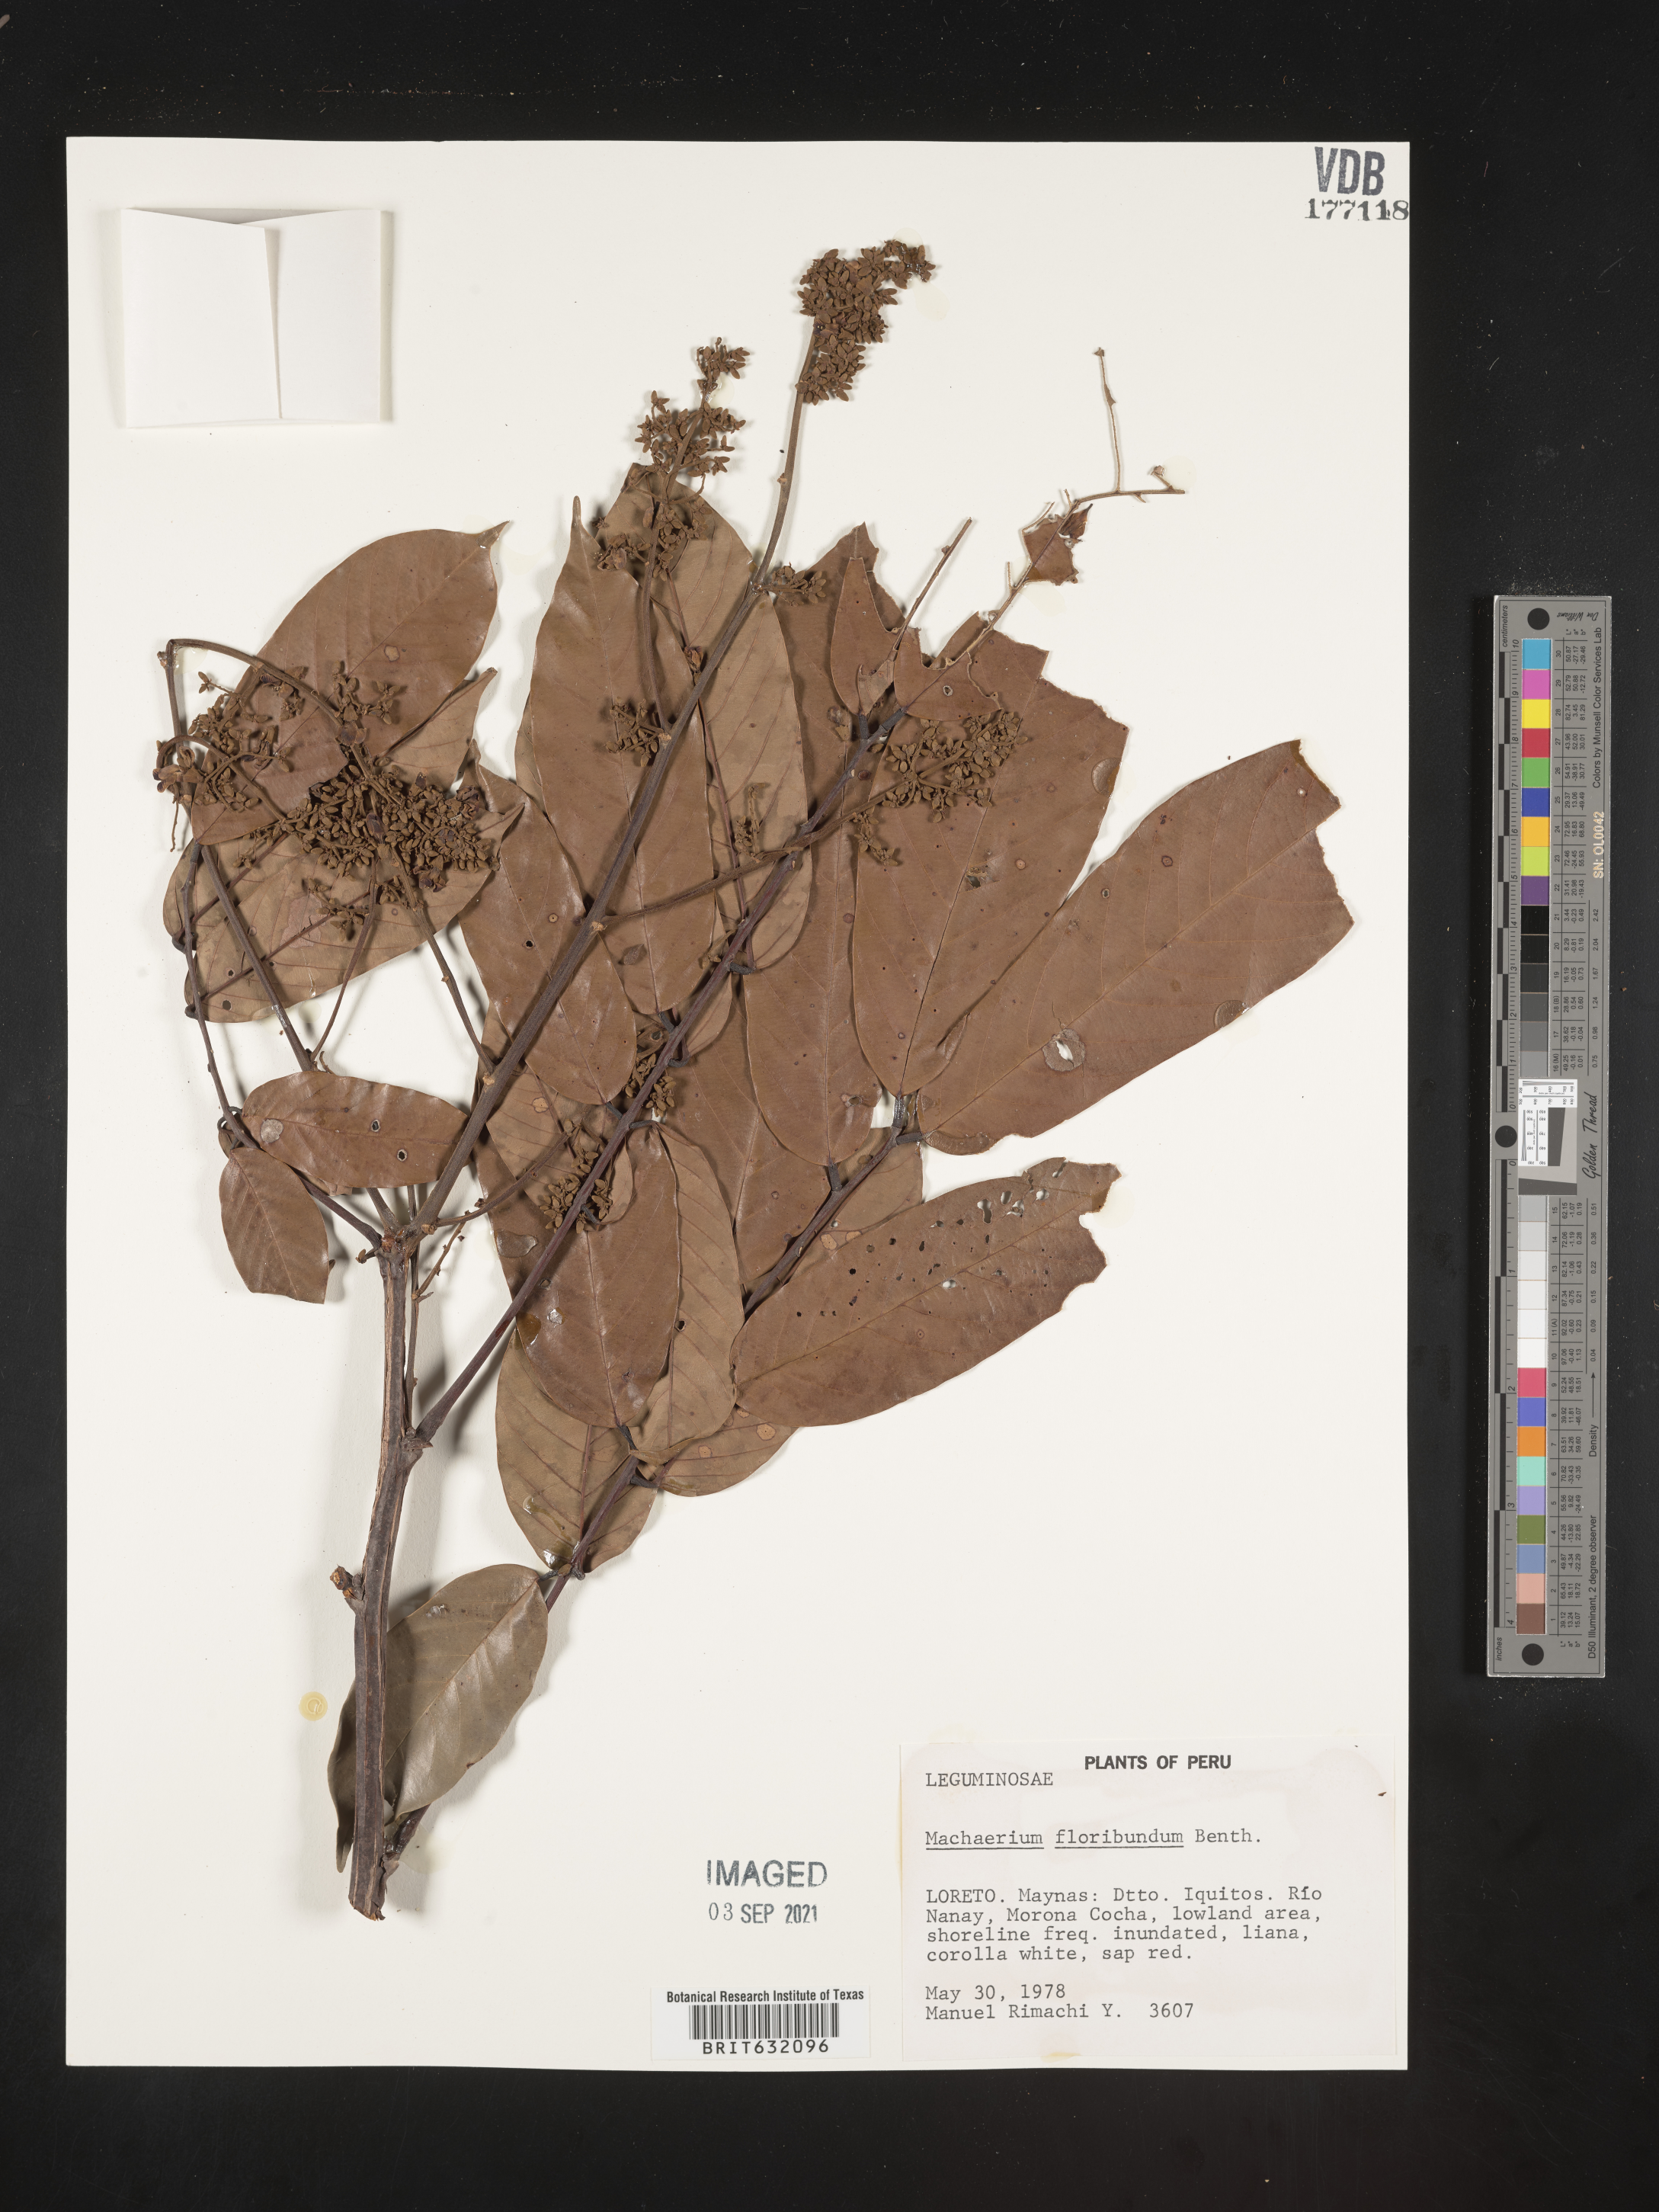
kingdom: Plantae
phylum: Tracheophyta
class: Magnoliopsida
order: Fabales
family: Fabaceae
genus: Machaerium
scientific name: Machaerium
